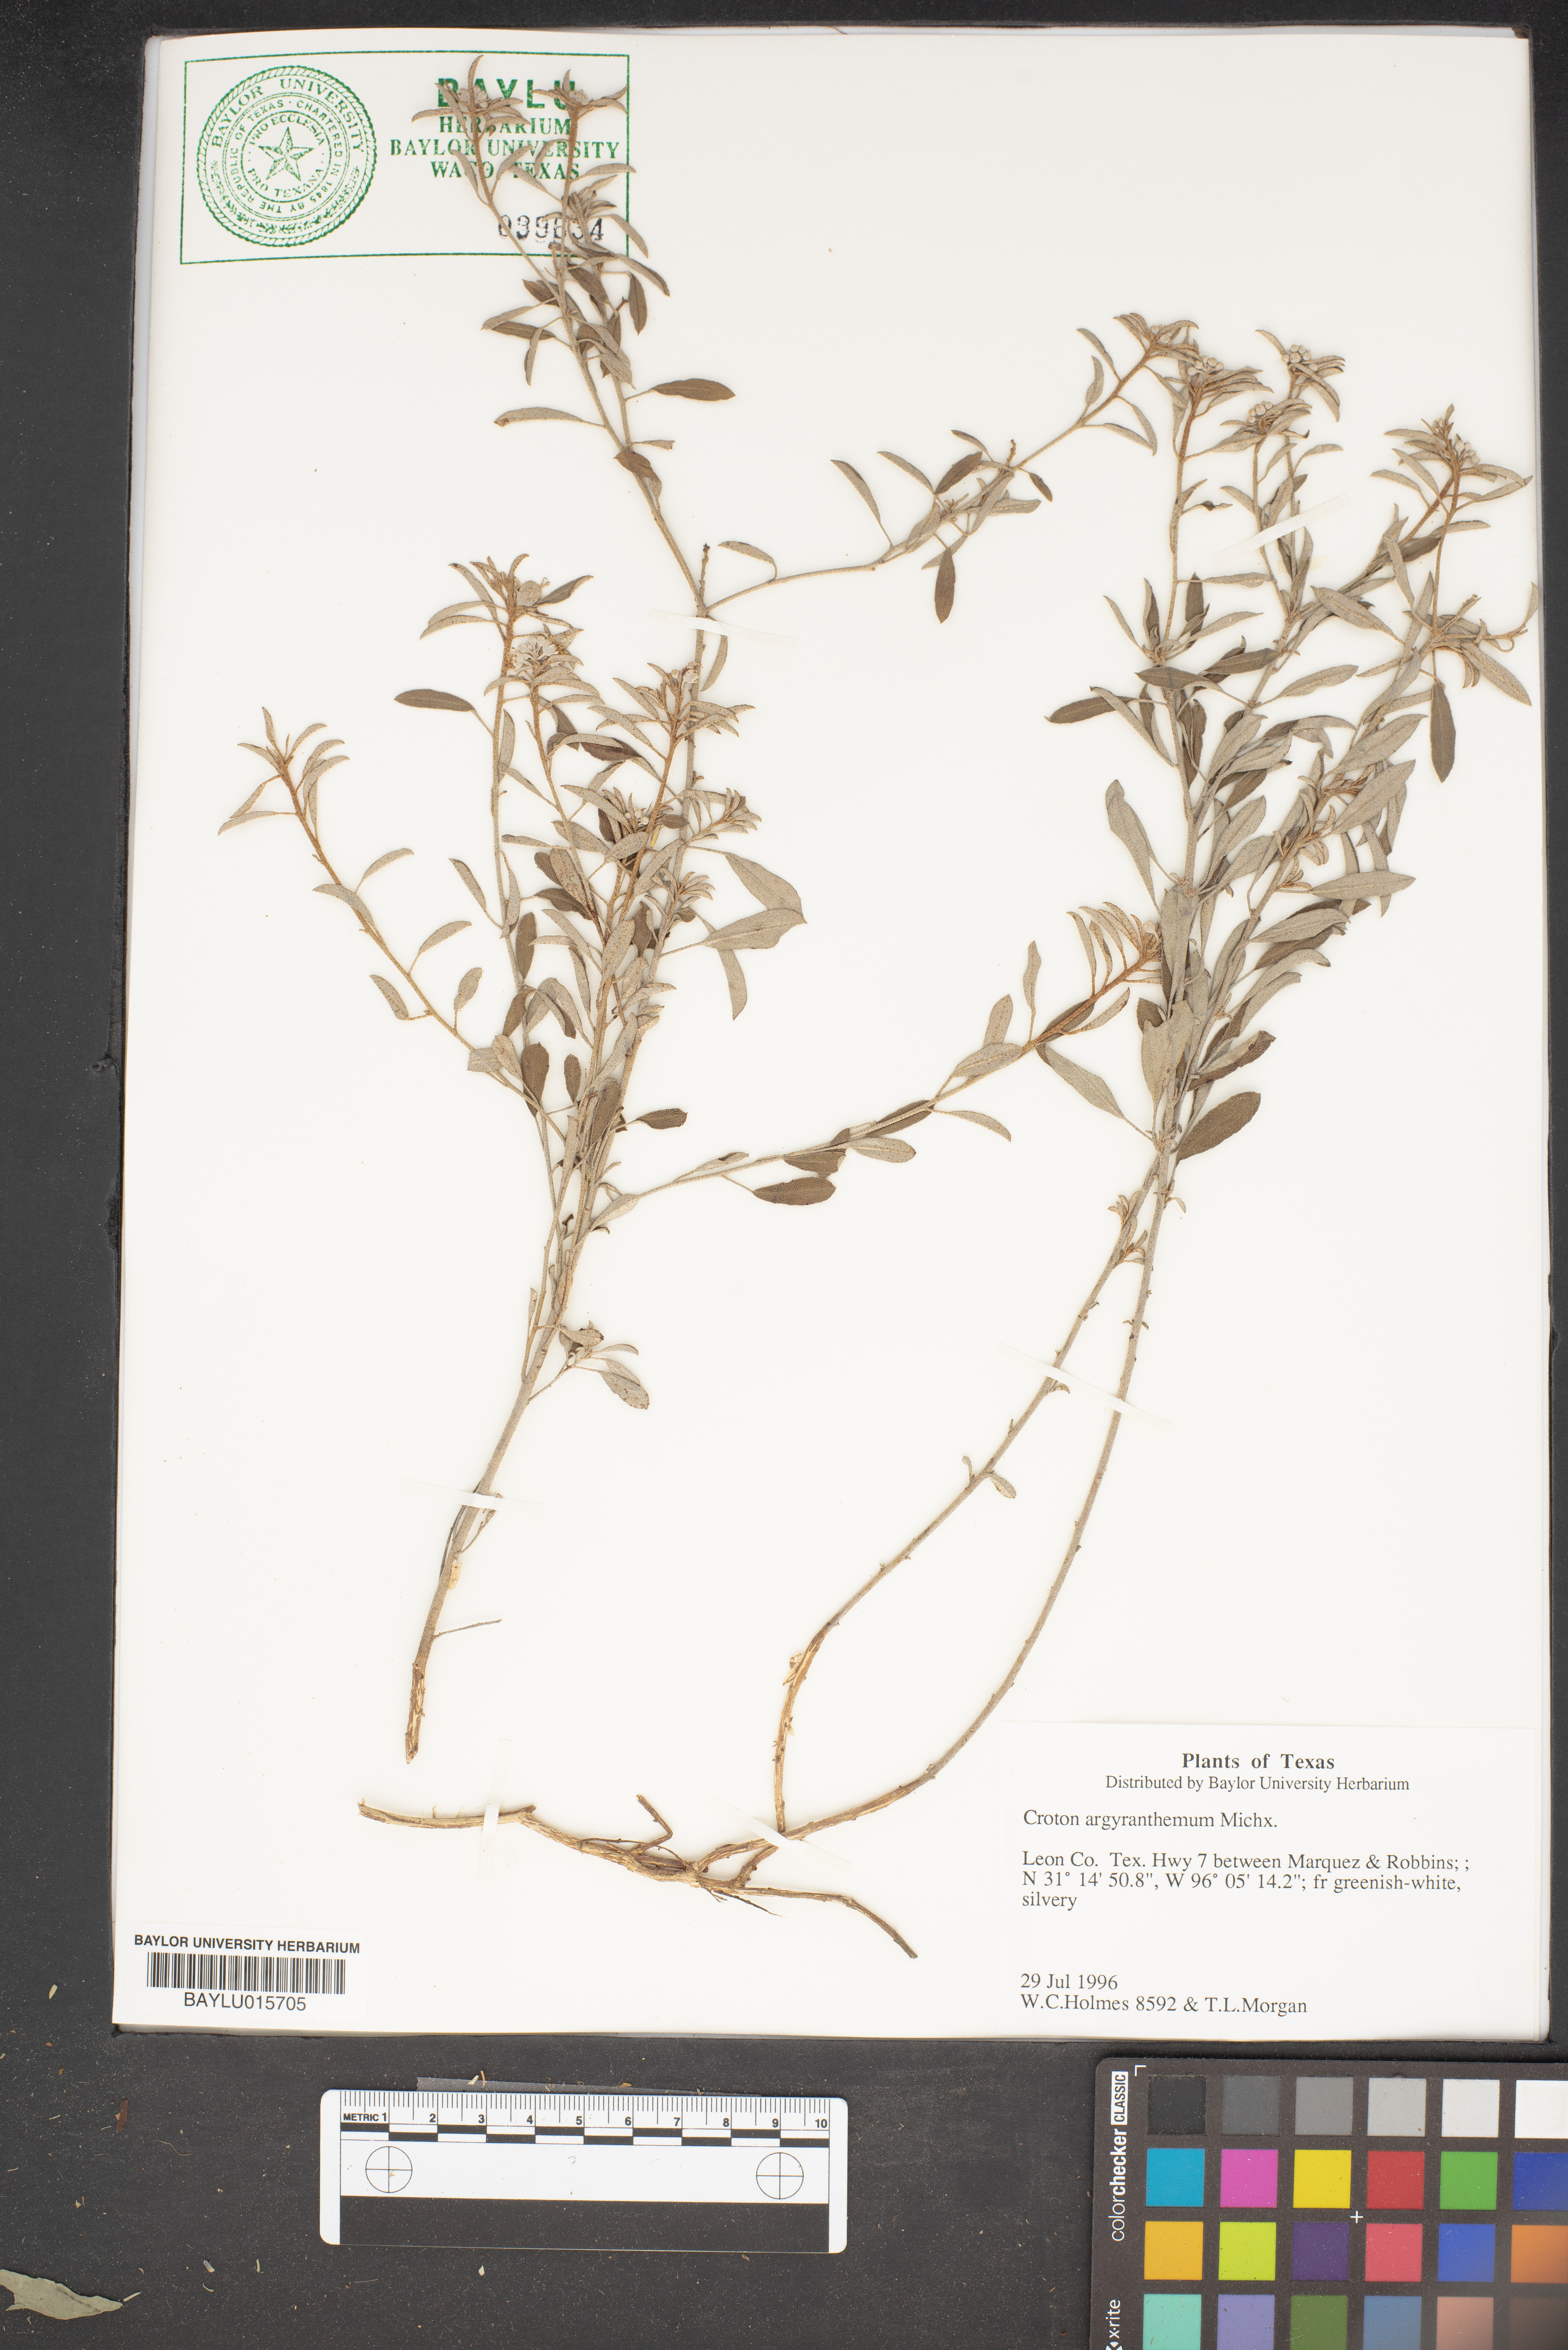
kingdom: Plantae
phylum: Tracheophyta
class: Magnoliopsida
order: Malpighiales
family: Euphorbiaceae
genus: Croton
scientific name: Croton argyranthemus
